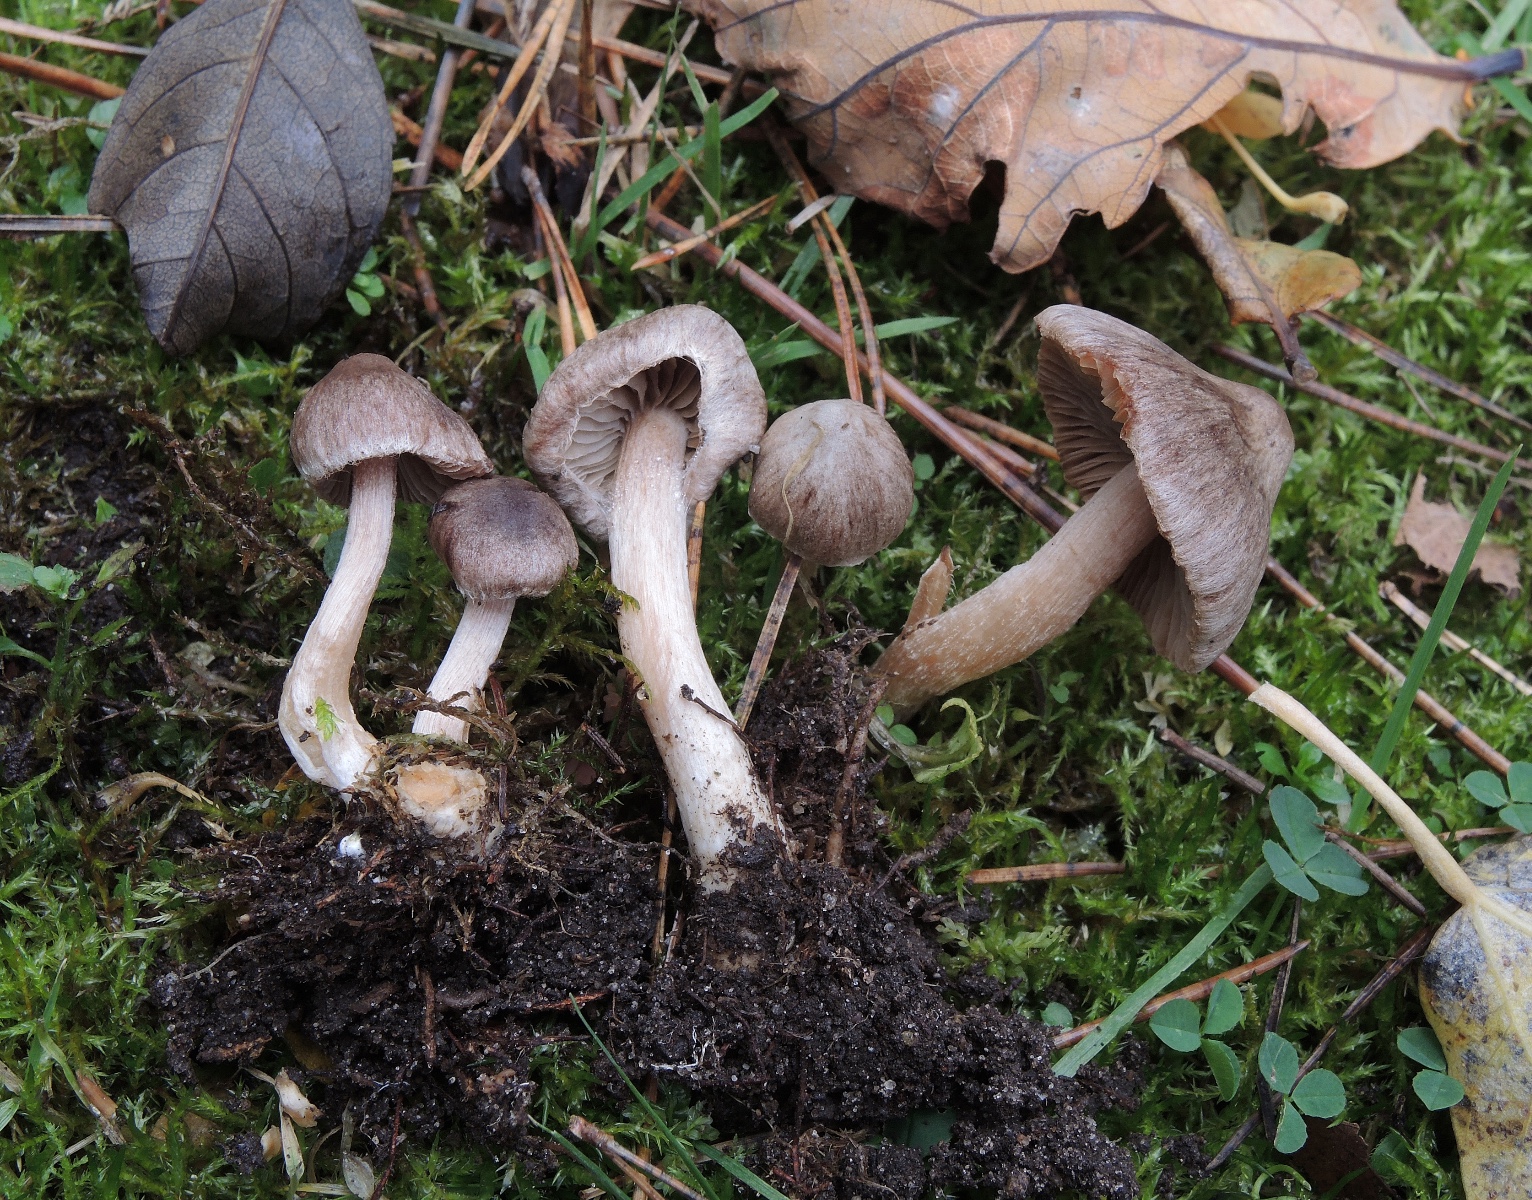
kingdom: Fungi
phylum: Basidiomycota
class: Agaricomycetes
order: Agaricales
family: Inocybaceae
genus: Inocybe
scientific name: Inocybe
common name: trævlhat
